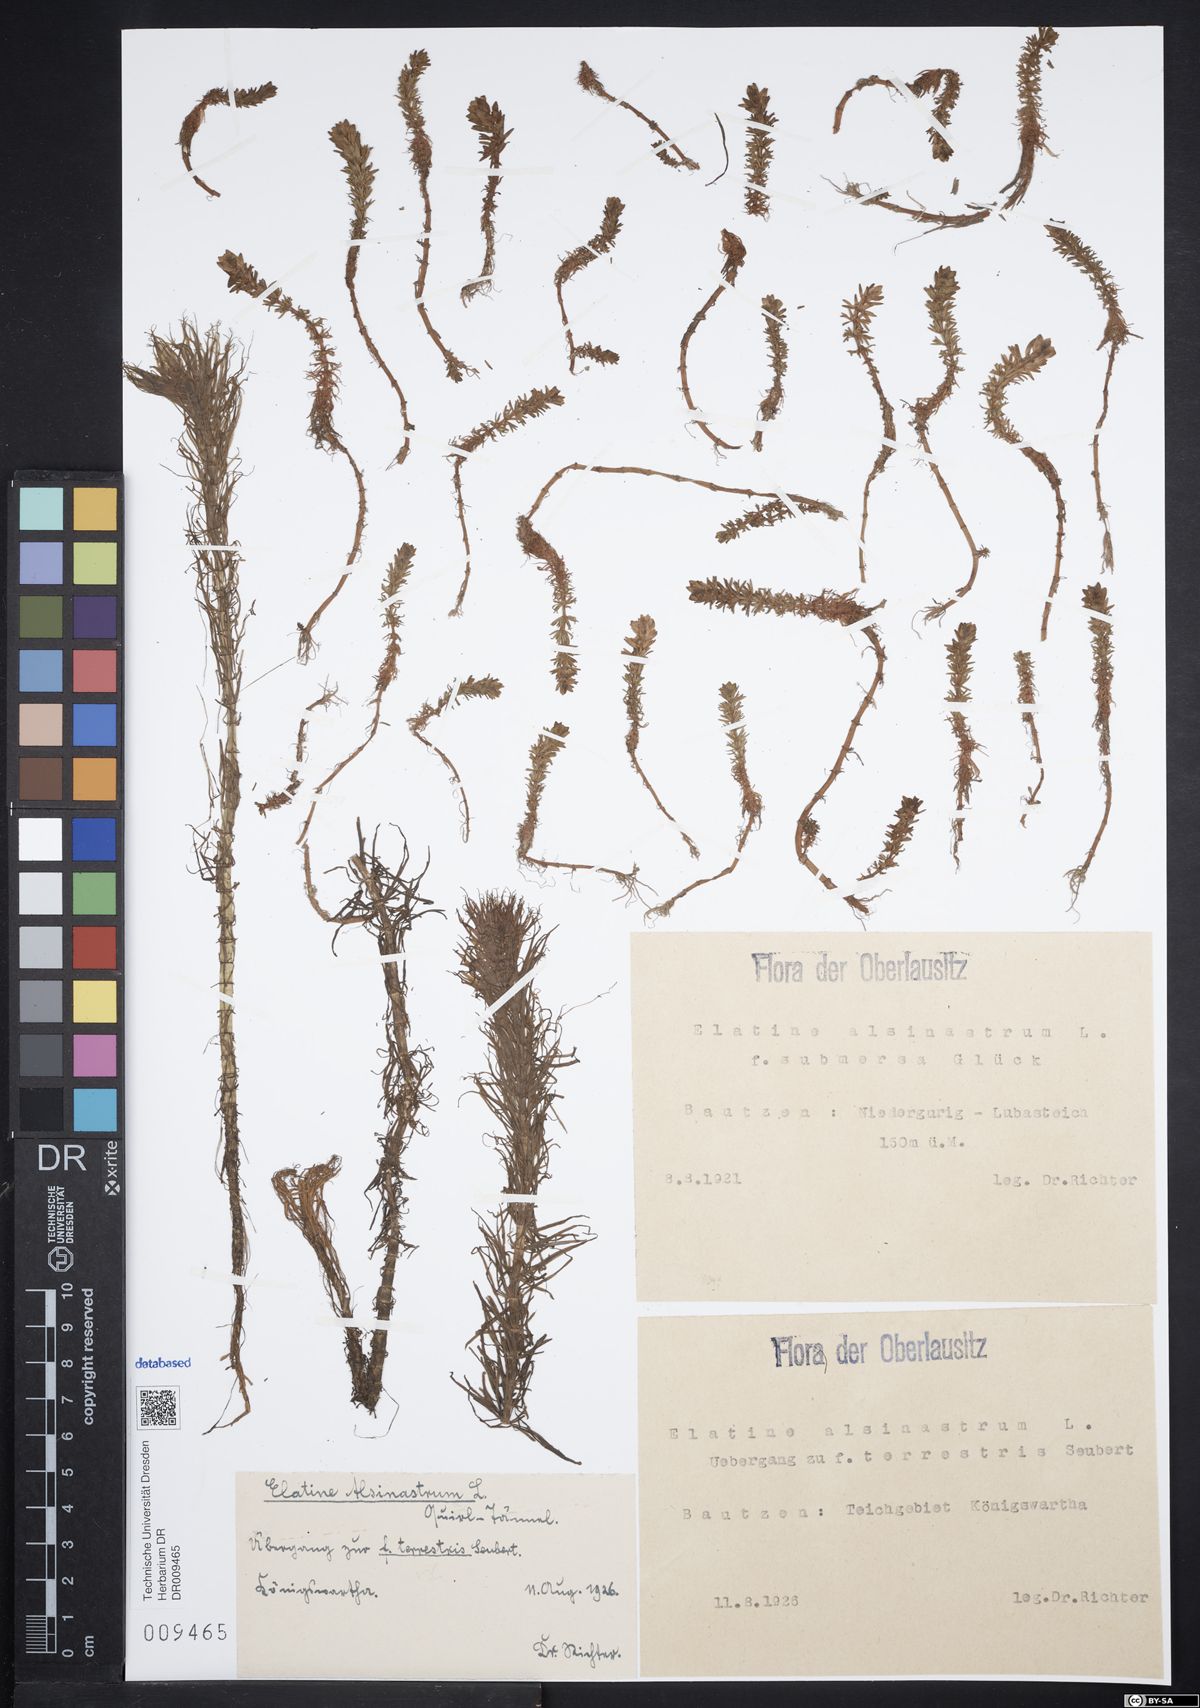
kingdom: Plantae
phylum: Tracheophyta
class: Magnoliopsida
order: Malpighiales
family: Elatinaceae
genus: Elatine
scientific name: Elatine alsinastrum
